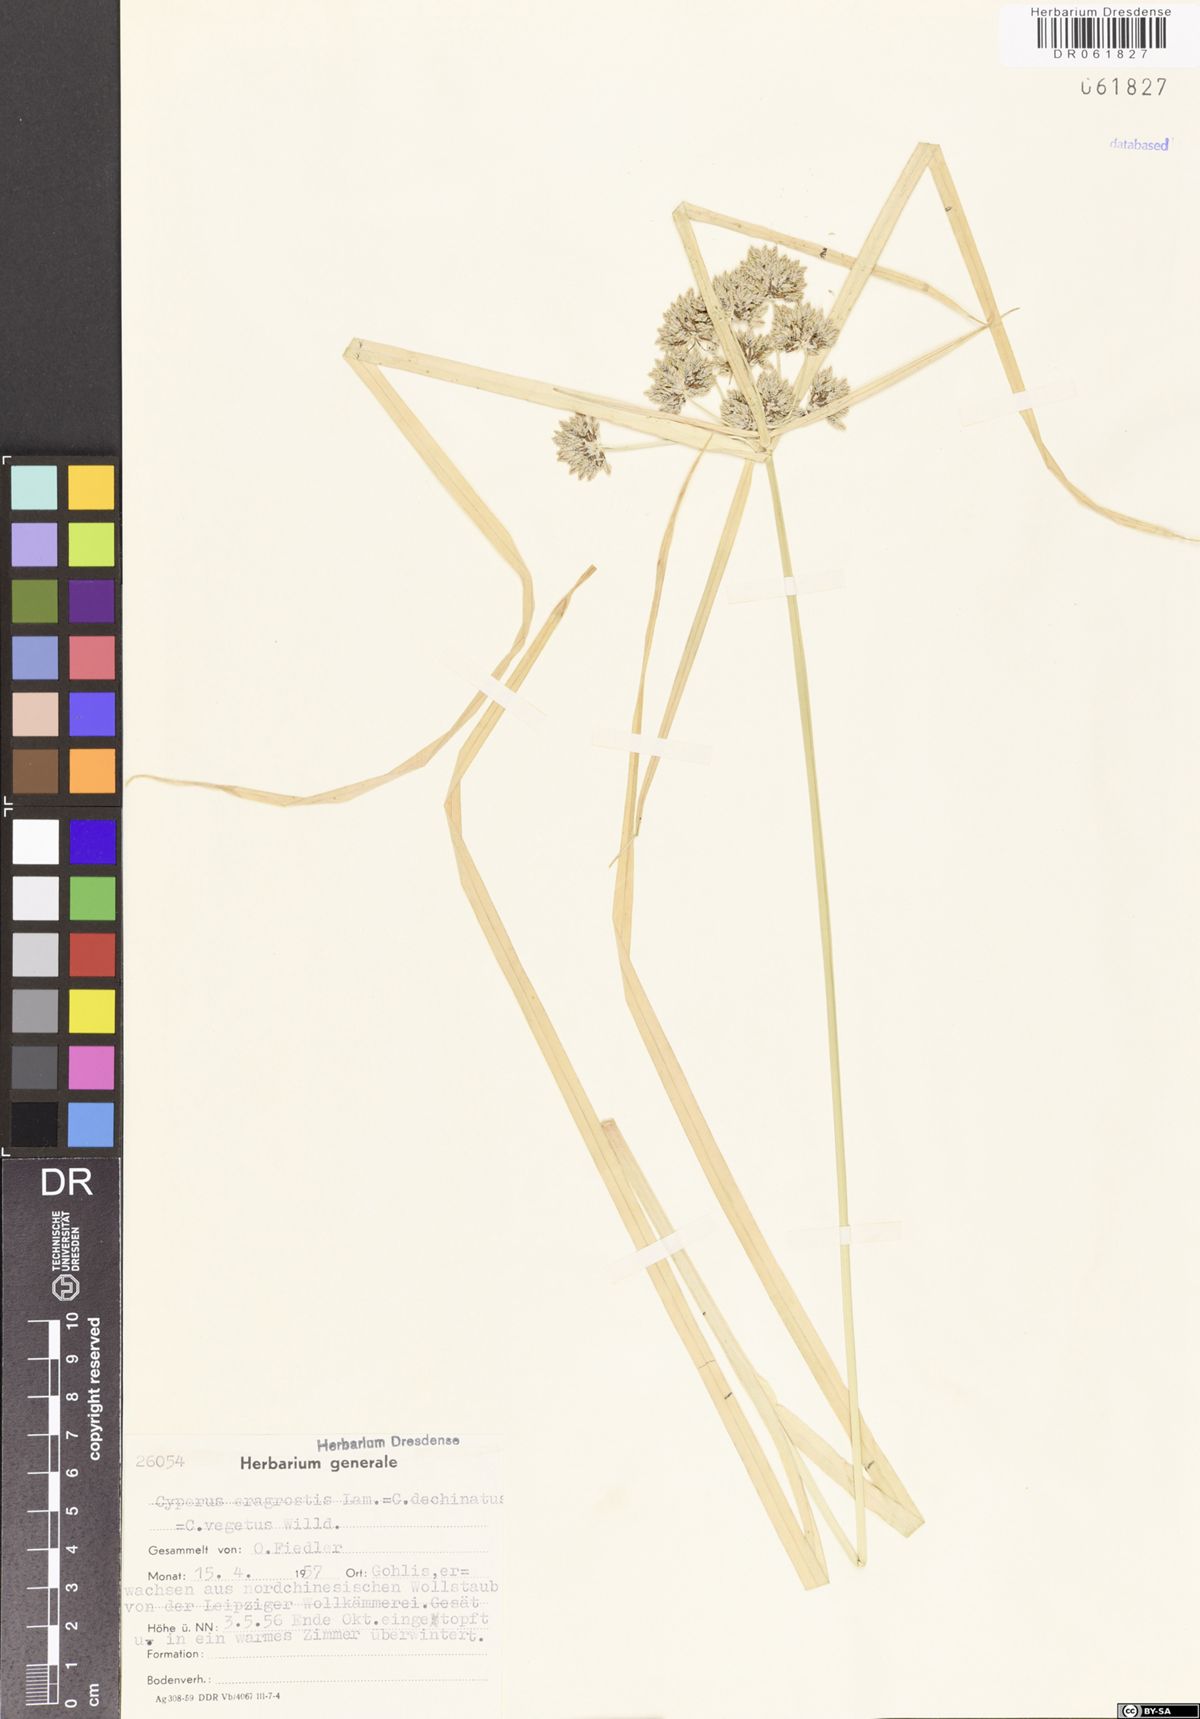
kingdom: Plantae
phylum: Tracheophyta
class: Liliopsida
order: Poales
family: Cyperaceae
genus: Cyperus
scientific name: Cyperus eragrostis
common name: Tall flatsedge
